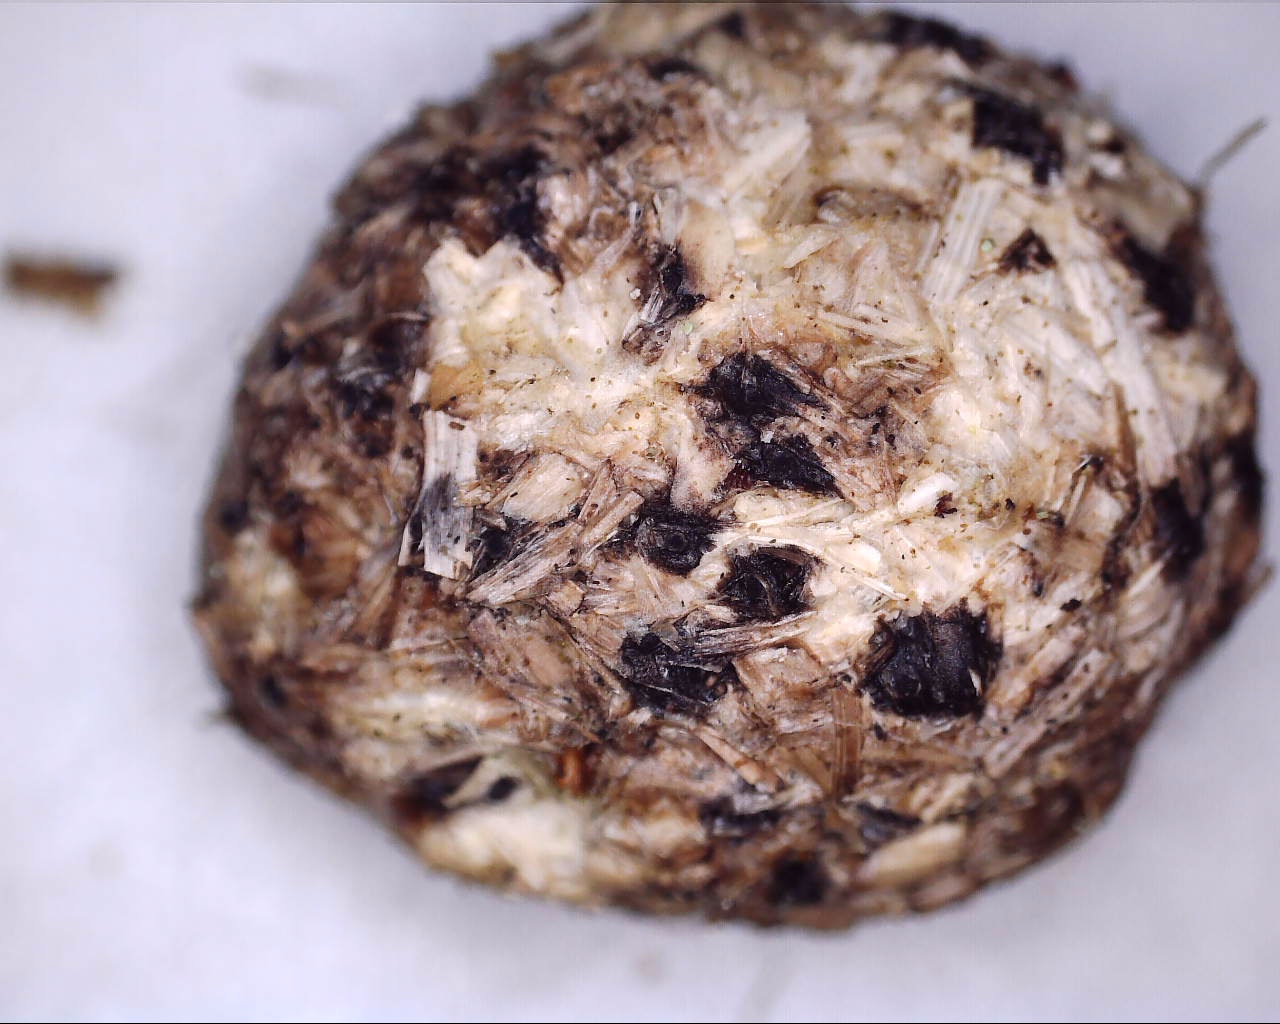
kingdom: Fungi
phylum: Ascomycota
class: Sordariomycetes
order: Xylariales
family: Xylariaceae
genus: Hypocopra
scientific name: Hypocopra
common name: skjoldkerne
